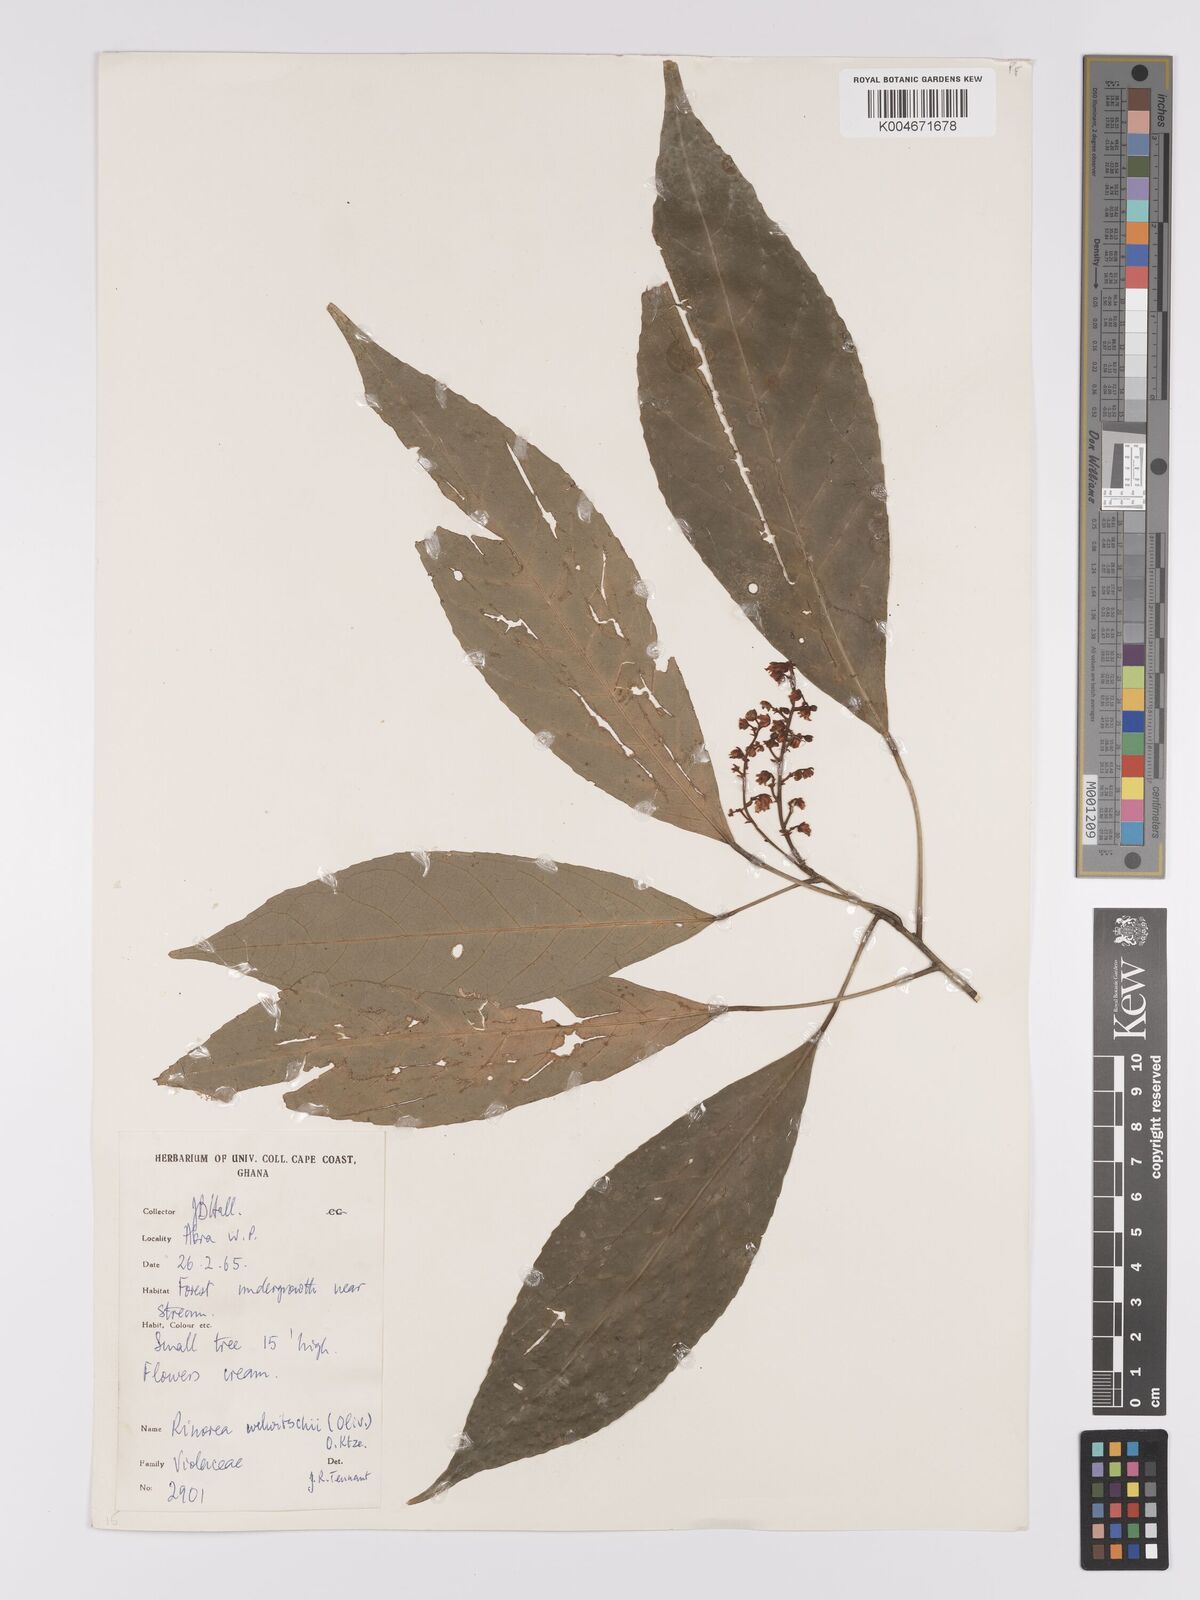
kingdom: Plantae
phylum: Tracheophyta
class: Magnoliopsida
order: Malpighiales
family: Violaceae
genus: Rinorea
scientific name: Rinorea welwitschii
